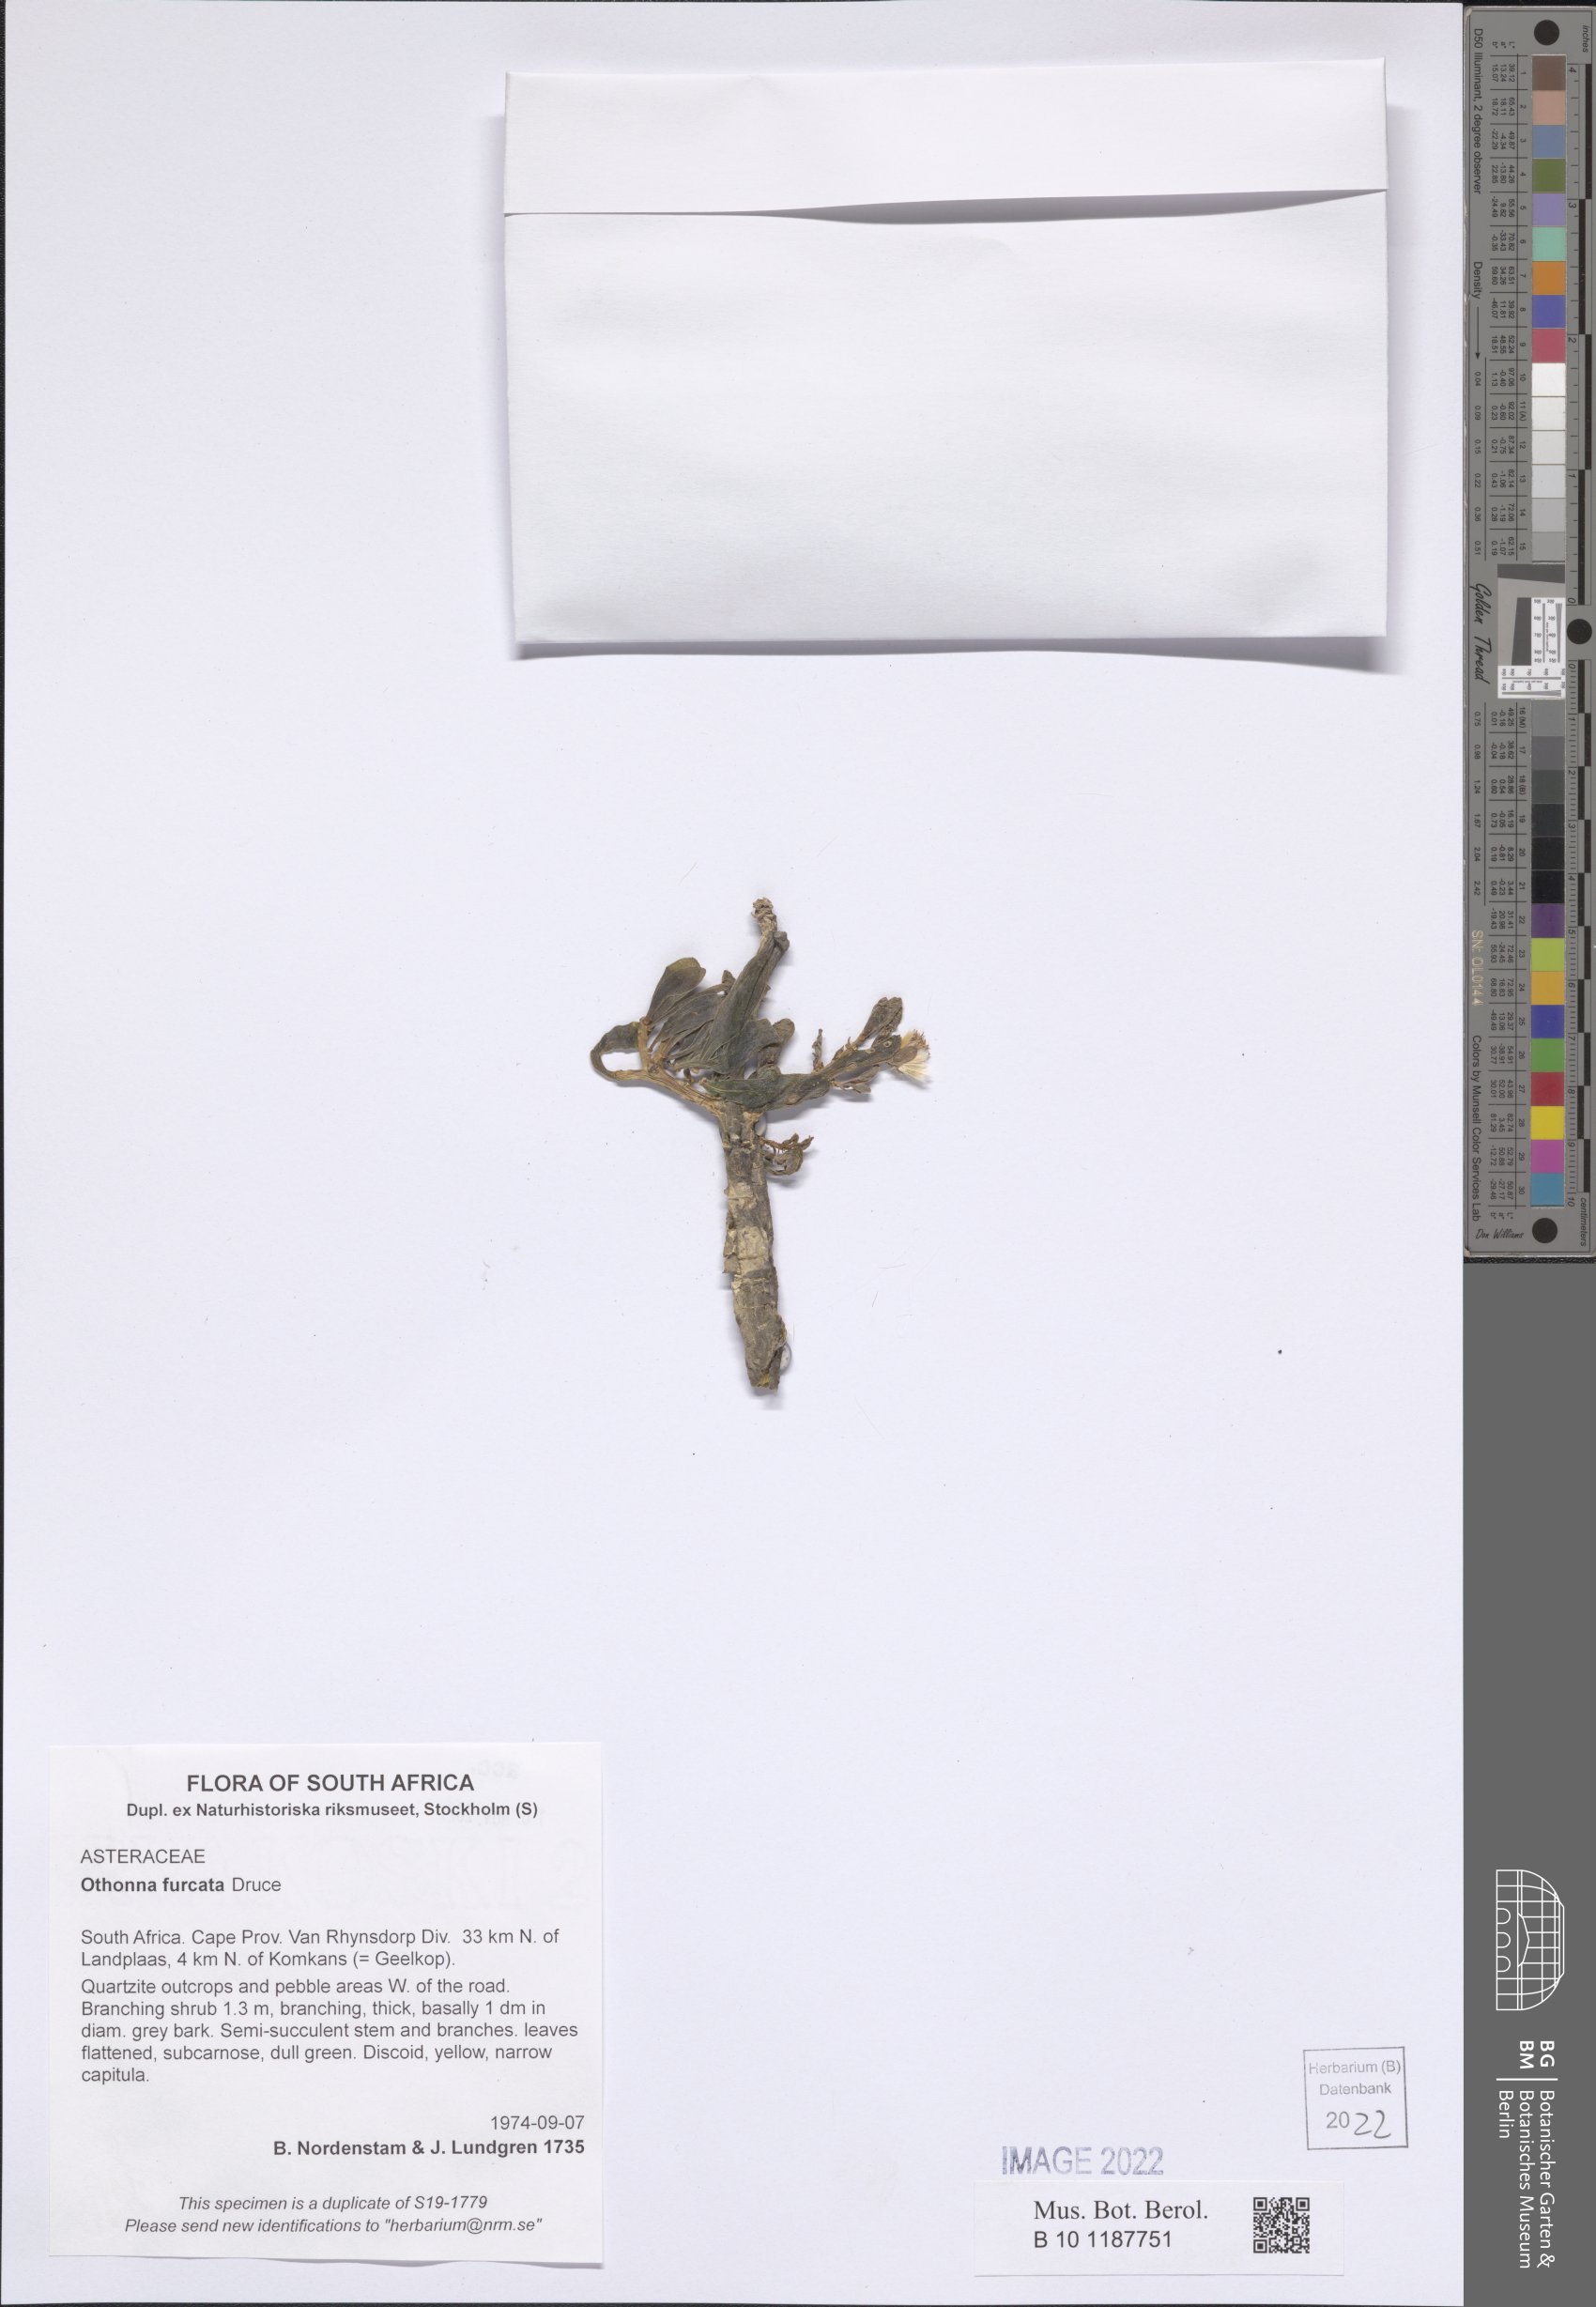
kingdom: Plantae
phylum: Tracheophyta
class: Magnoliopsida
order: Asterales
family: Asteraceae
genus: Othonna
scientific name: Othonna furcata
